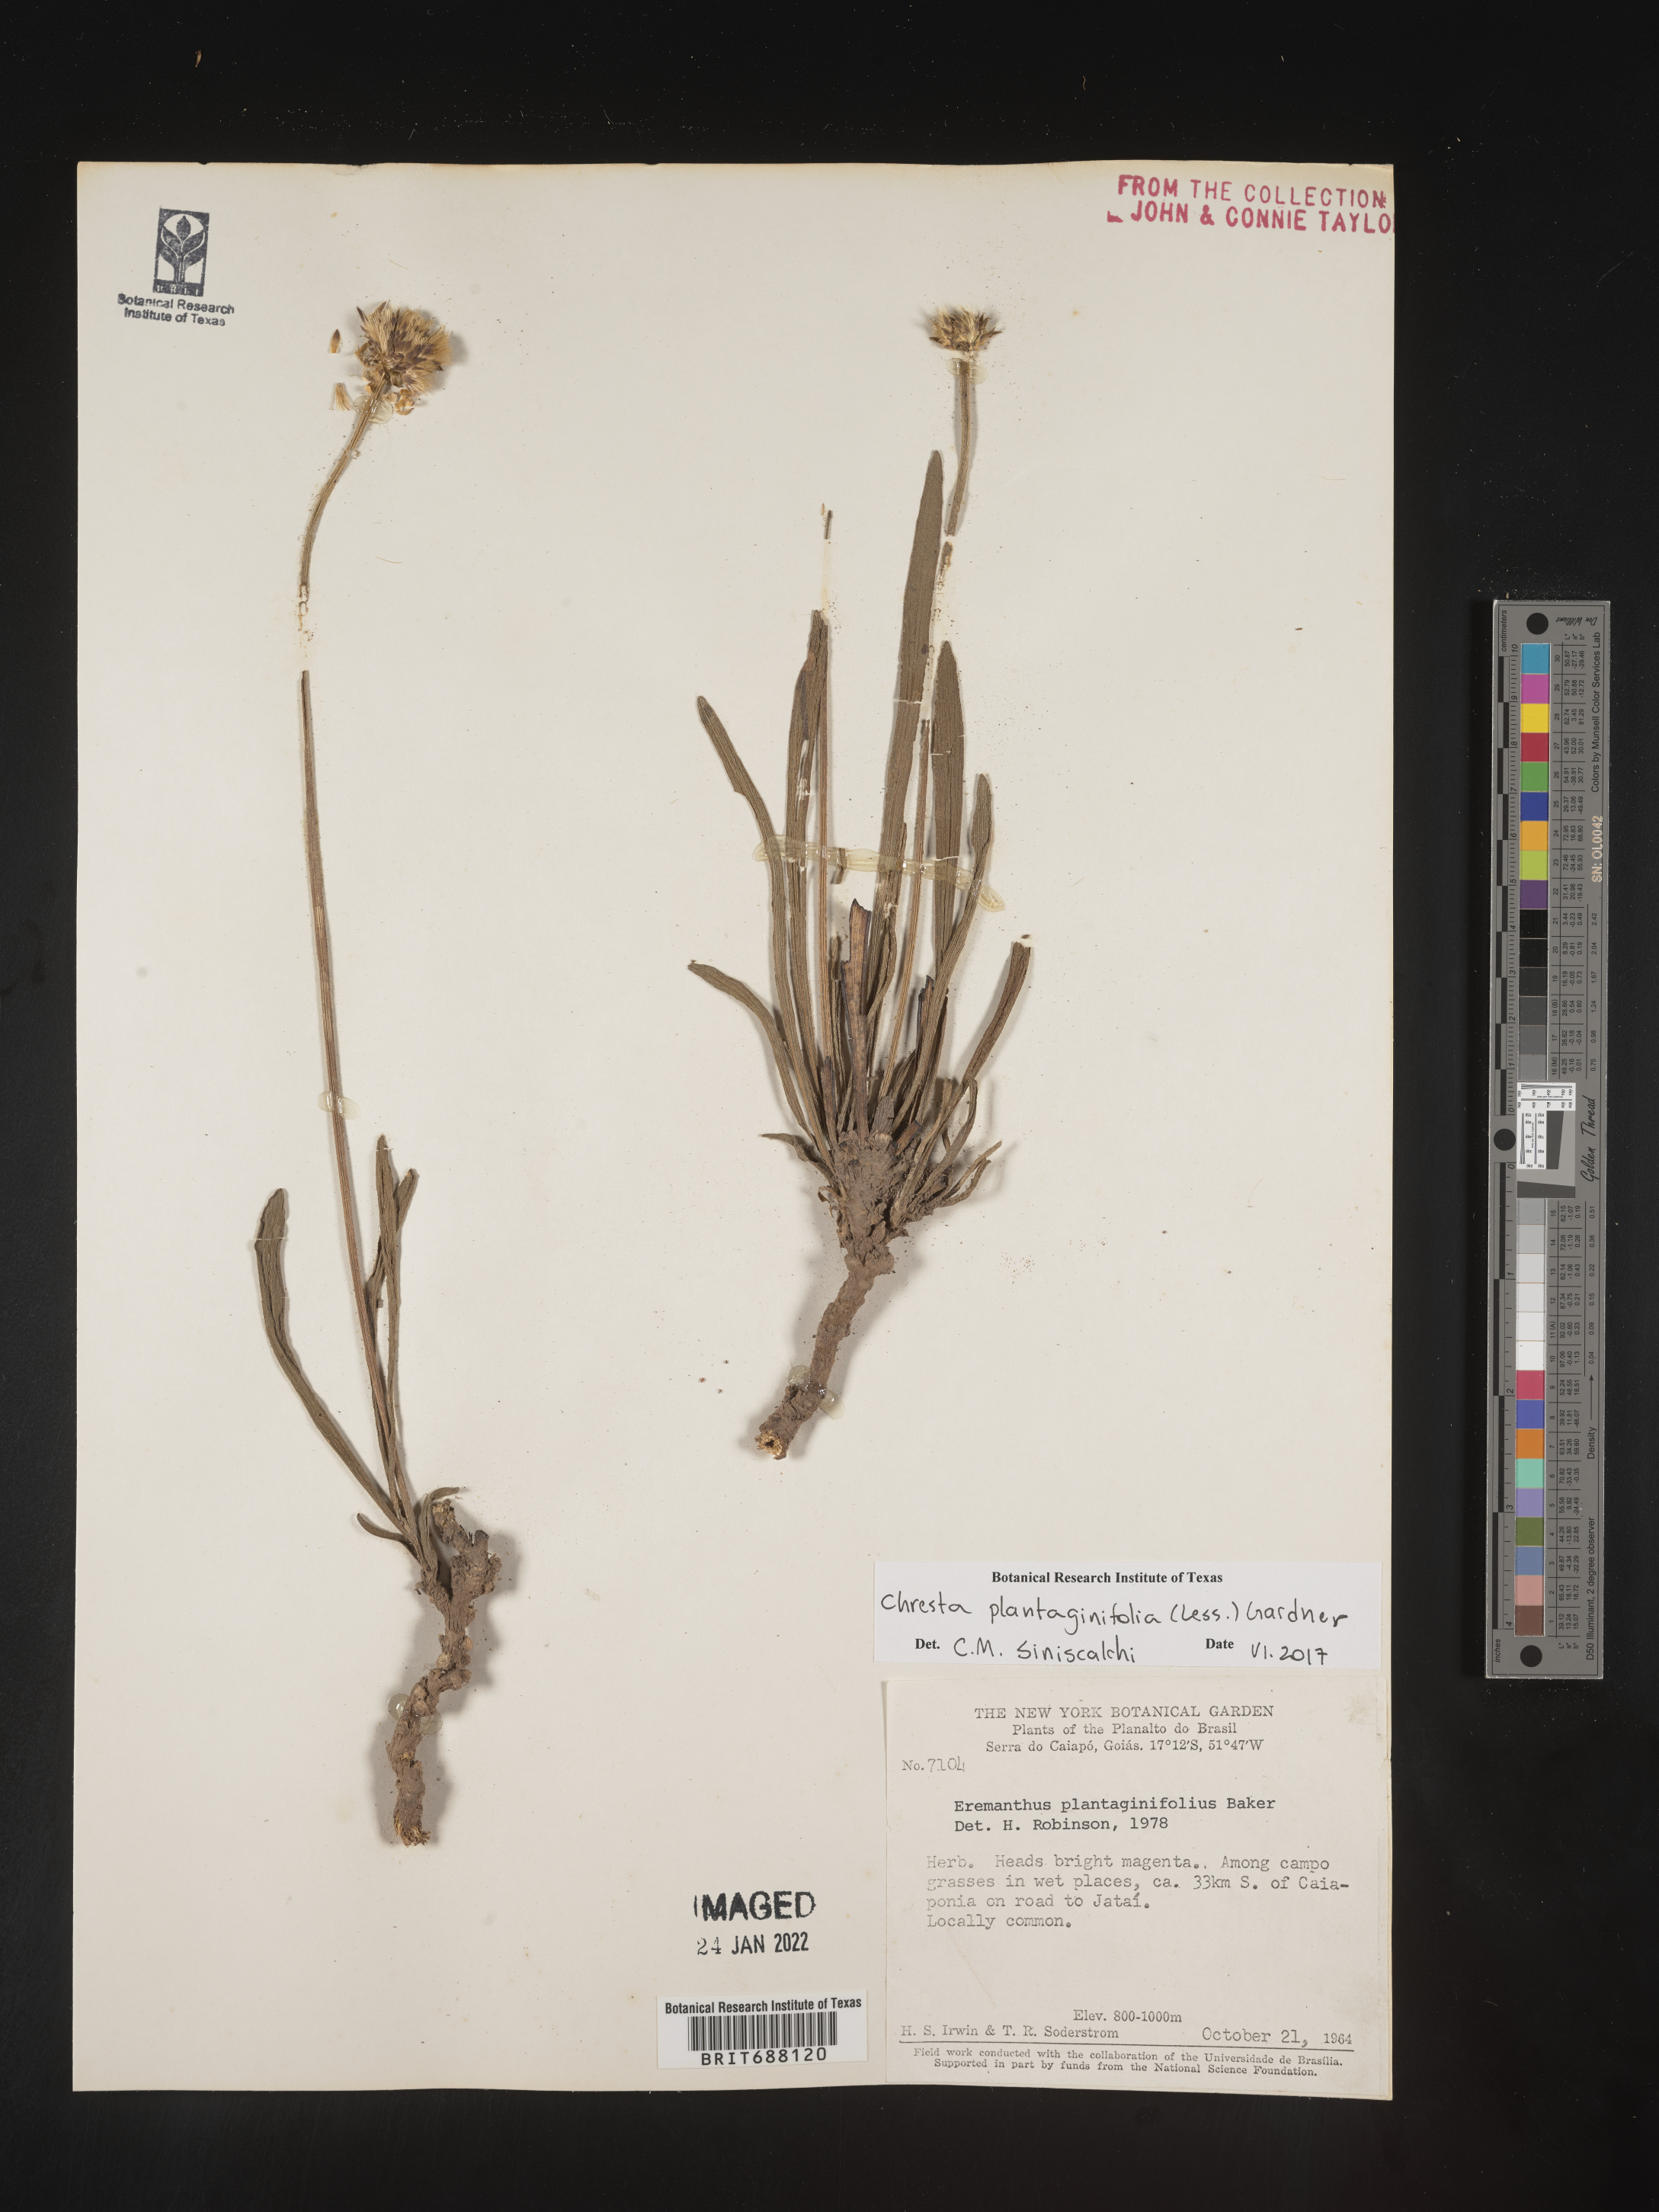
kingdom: Plantae
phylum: Tracheophyta
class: Magnoliopsida
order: Asterales
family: Asteraceae
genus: Chresta
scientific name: Chresta
